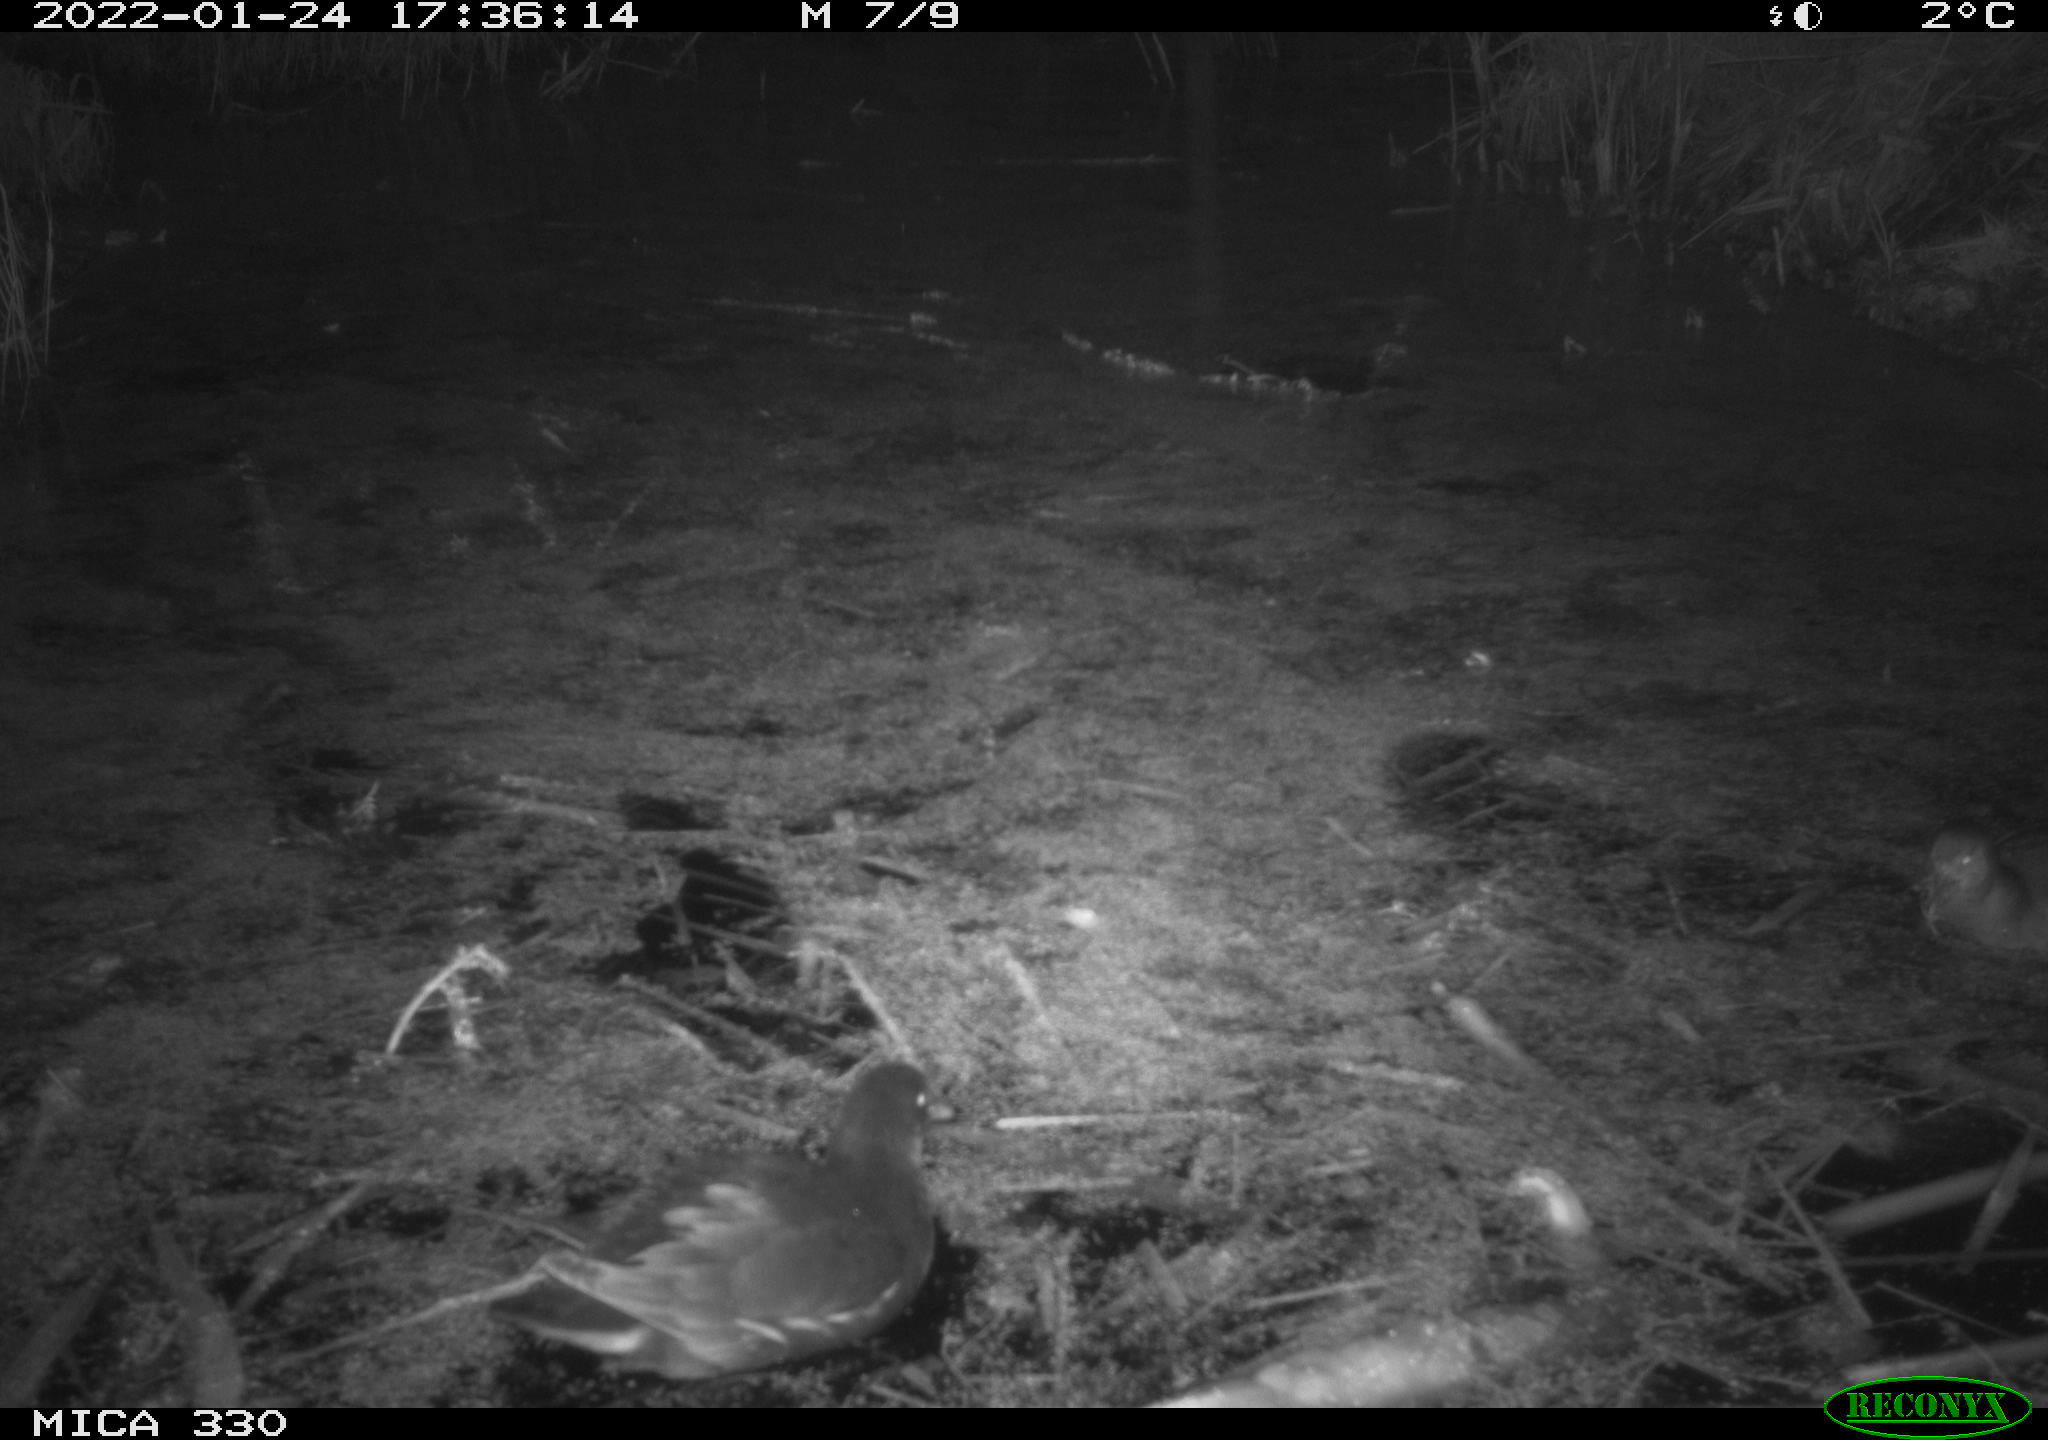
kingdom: Animalia
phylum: Chordata
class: Aves
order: Gruiformes
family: Rallidae
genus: Gallinula
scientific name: Gallinula chloropus
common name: Common moorhen
